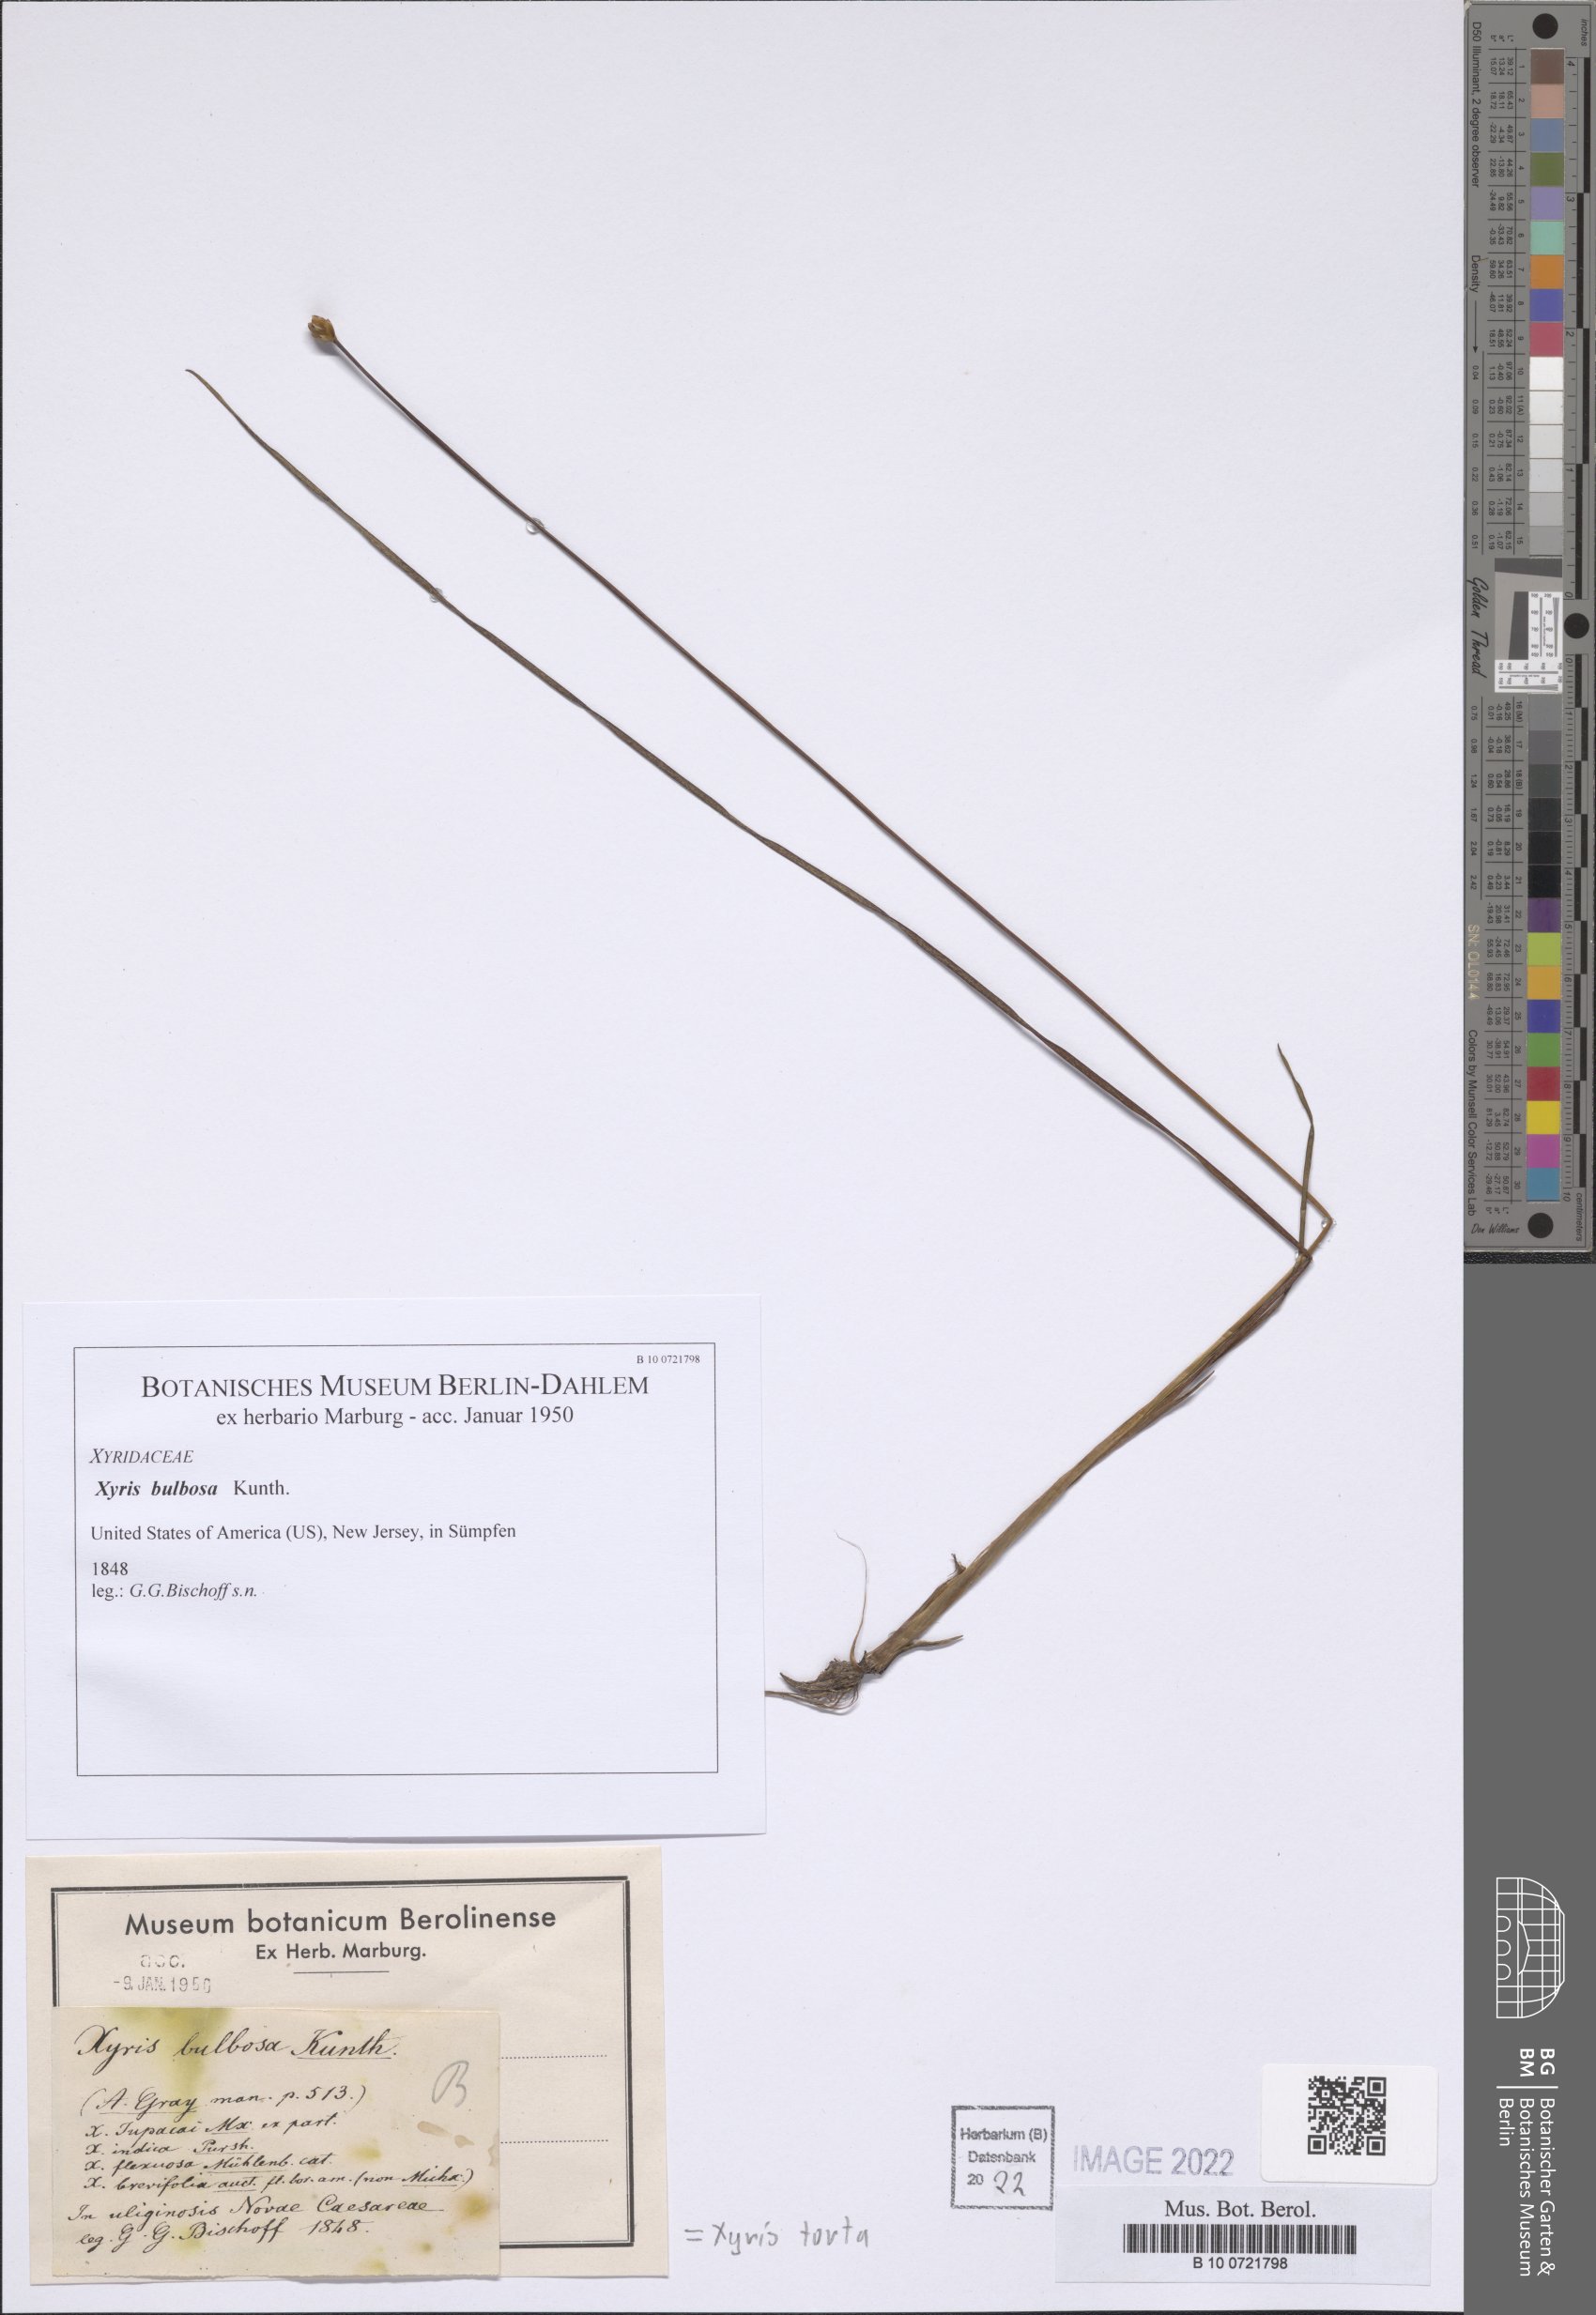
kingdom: Plantae
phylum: Tracheophyta
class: Liliopsida
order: Poales
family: Xyridaceae
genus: Xyris
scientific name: Xyris torta
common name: Common yelloweyed grass
